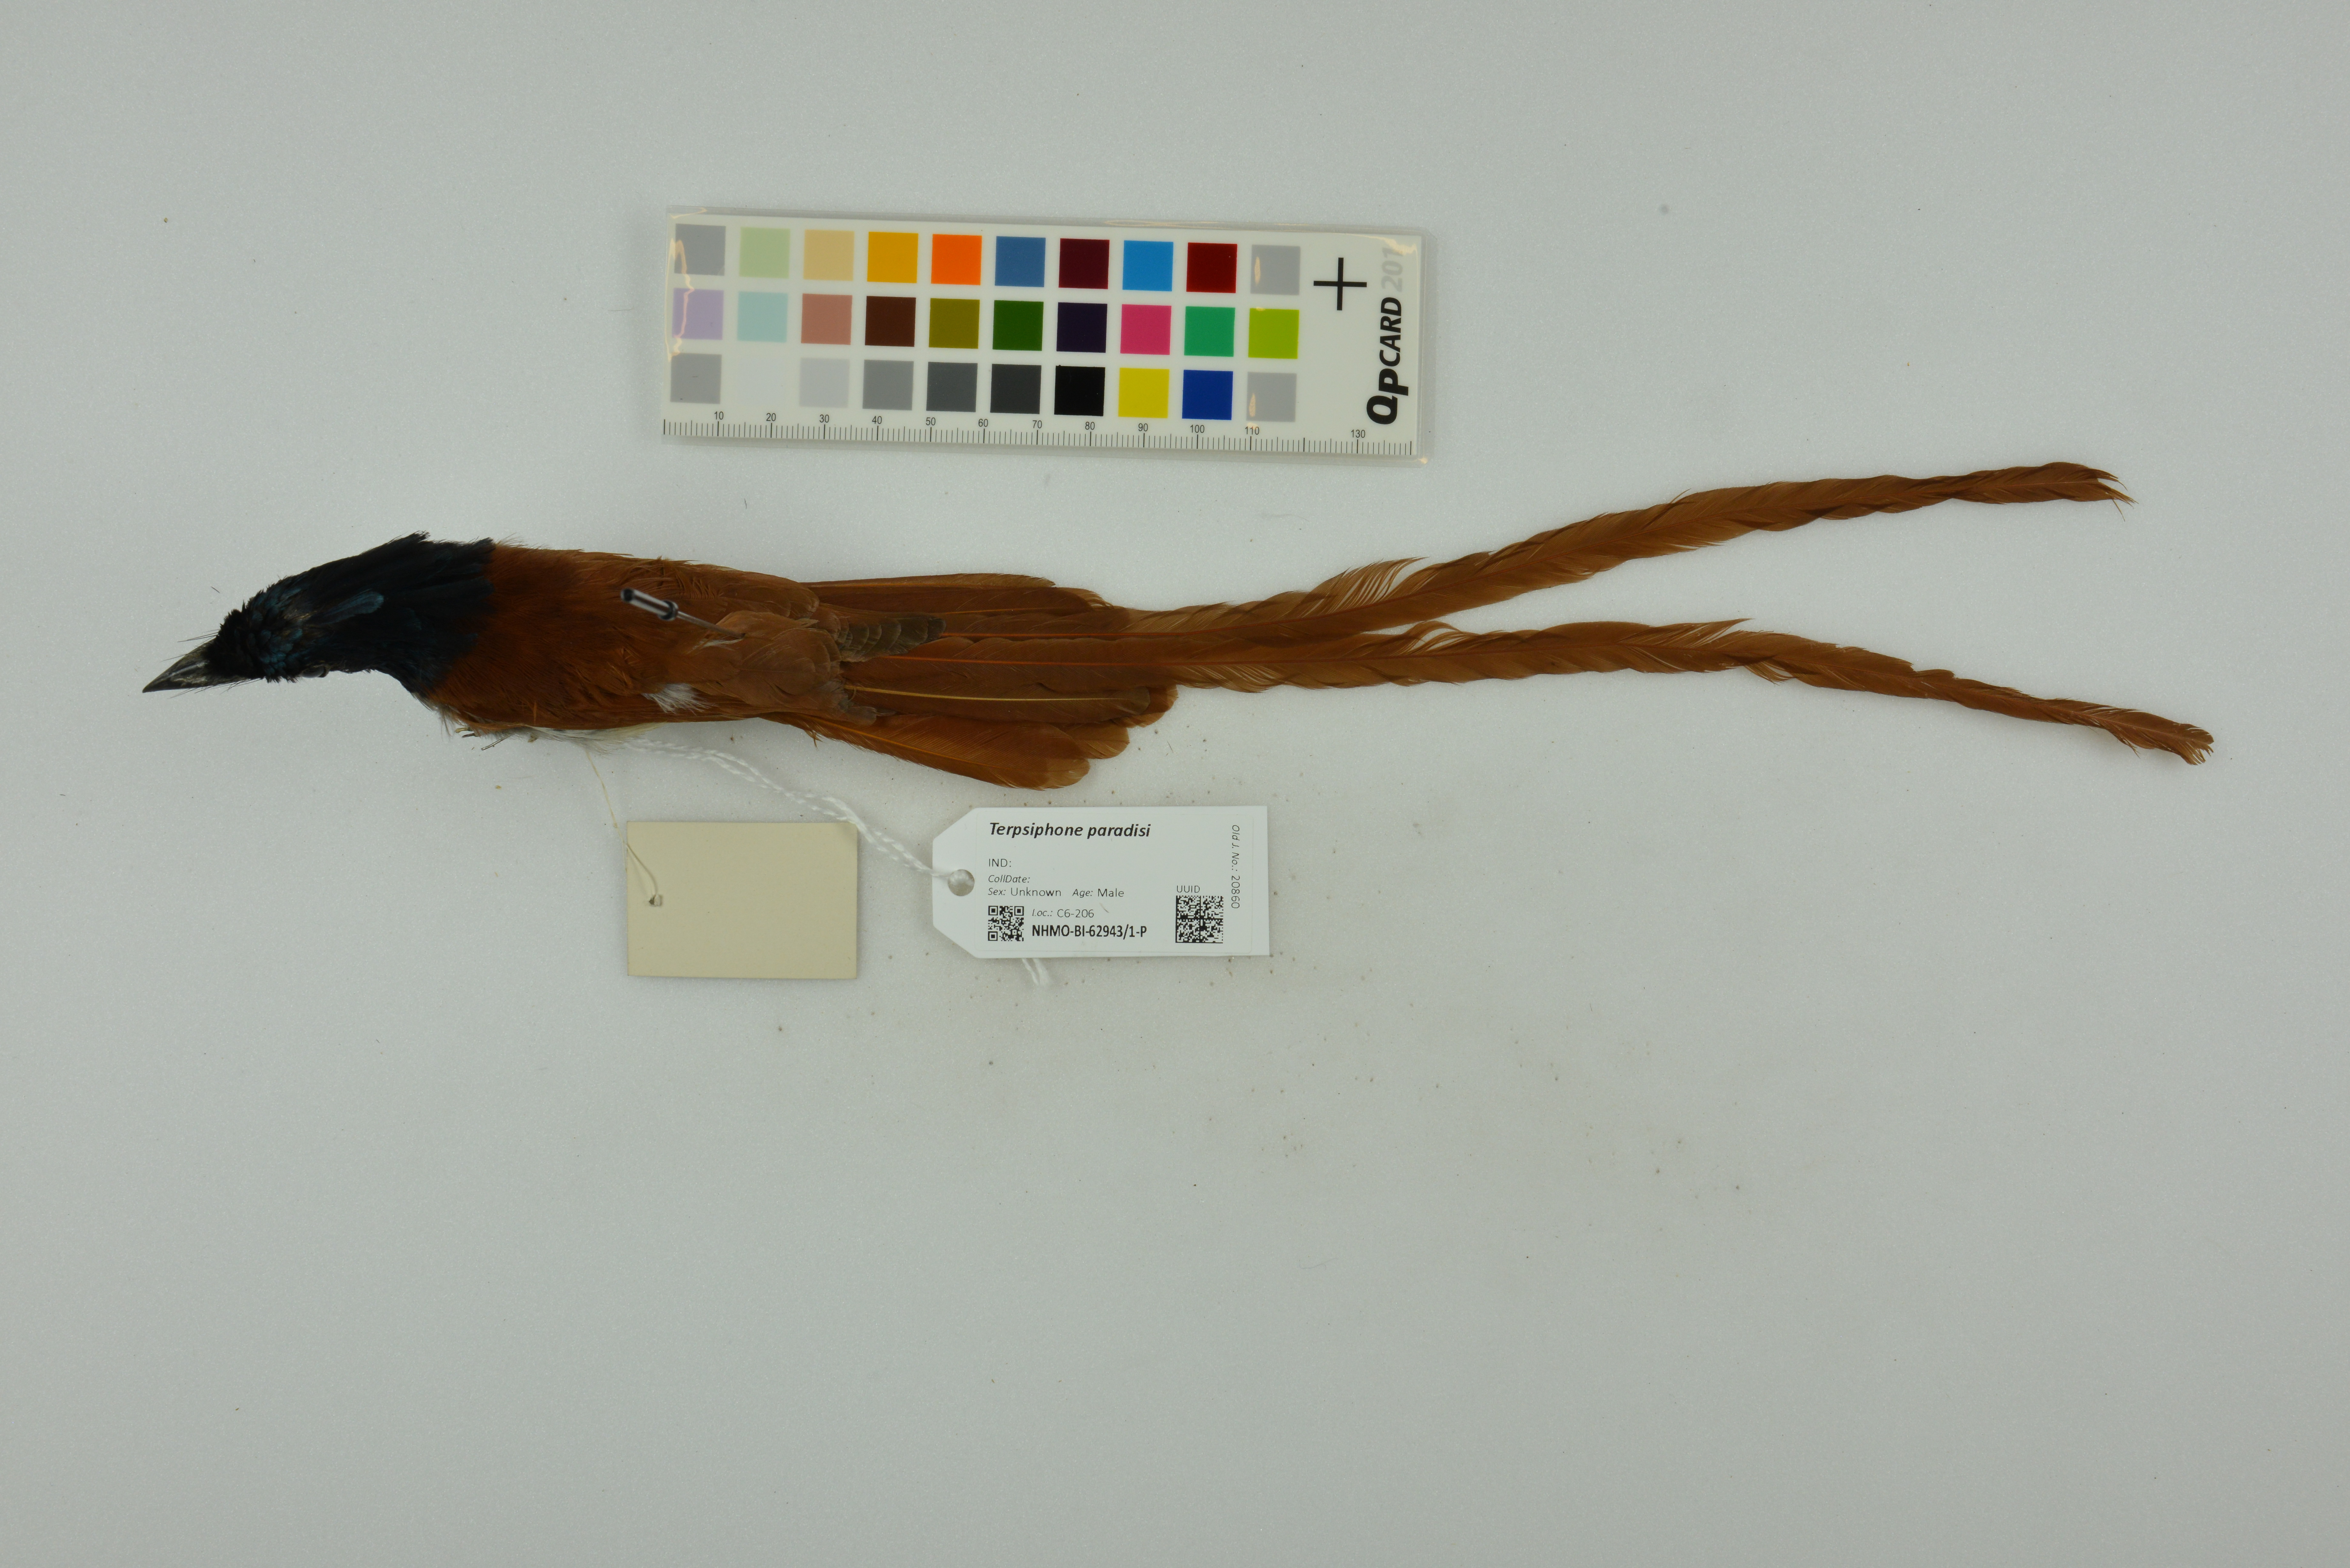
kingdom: Animalia
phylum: Chordata
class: Aves
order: Passeriformes
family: Monarchidae
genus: Terpsiphone
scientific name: Terpsiphone paradisi
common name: Indian paradise flycatcher
